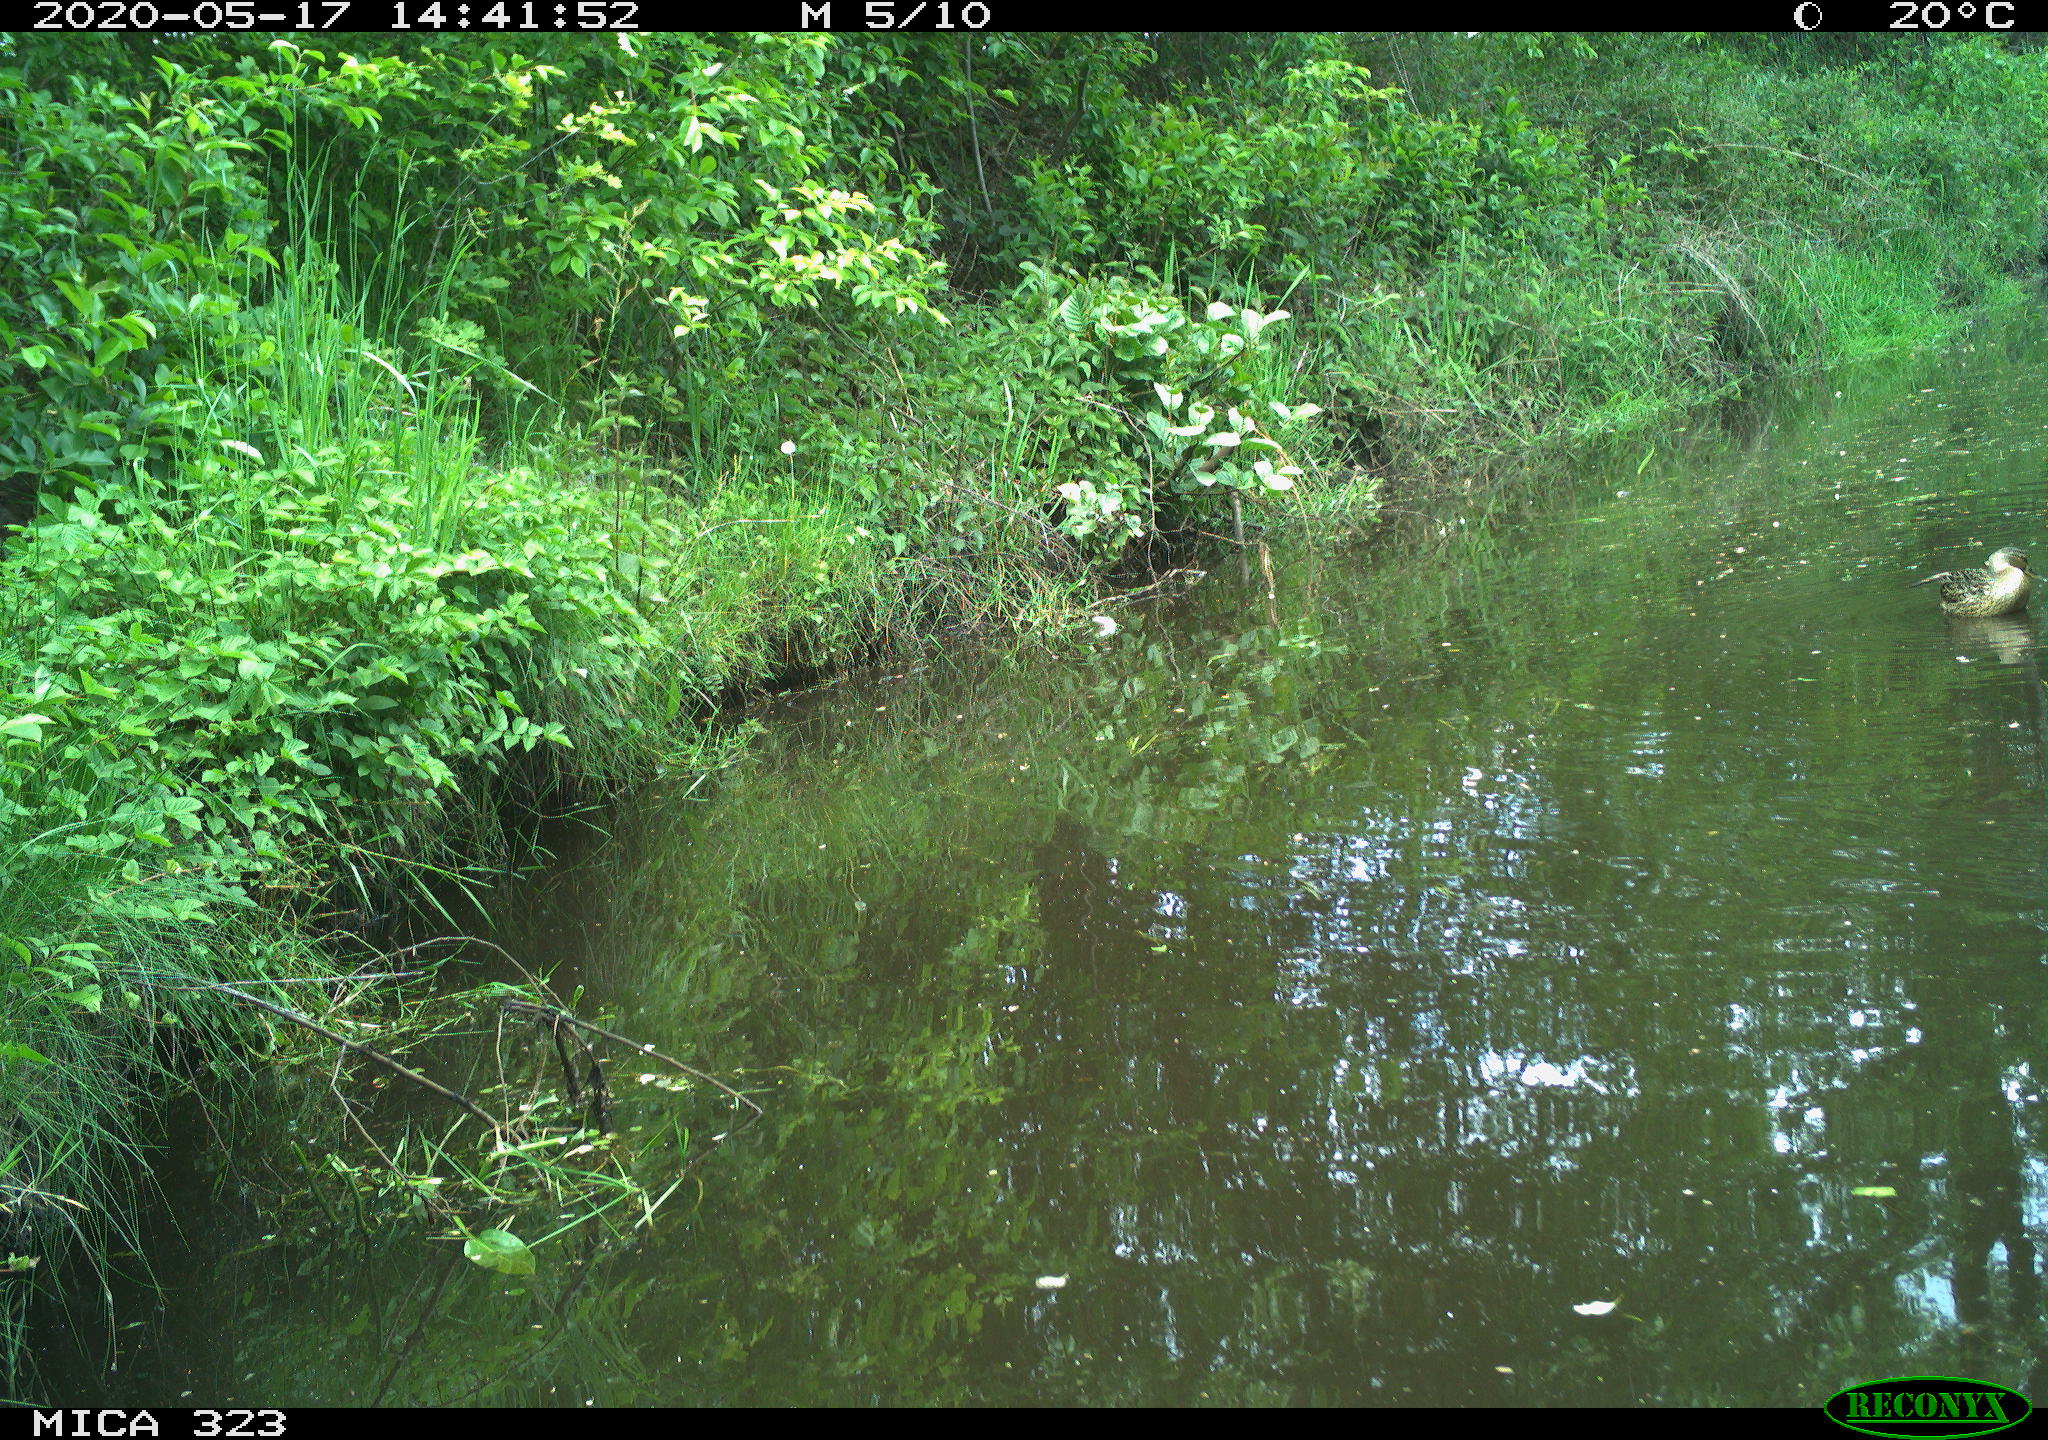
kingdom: Animalia
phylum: Chordata
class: Aves
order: Anseriformes
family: Anatidae
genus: Anas
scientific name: Anas platyrhynchos
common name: Mallard
